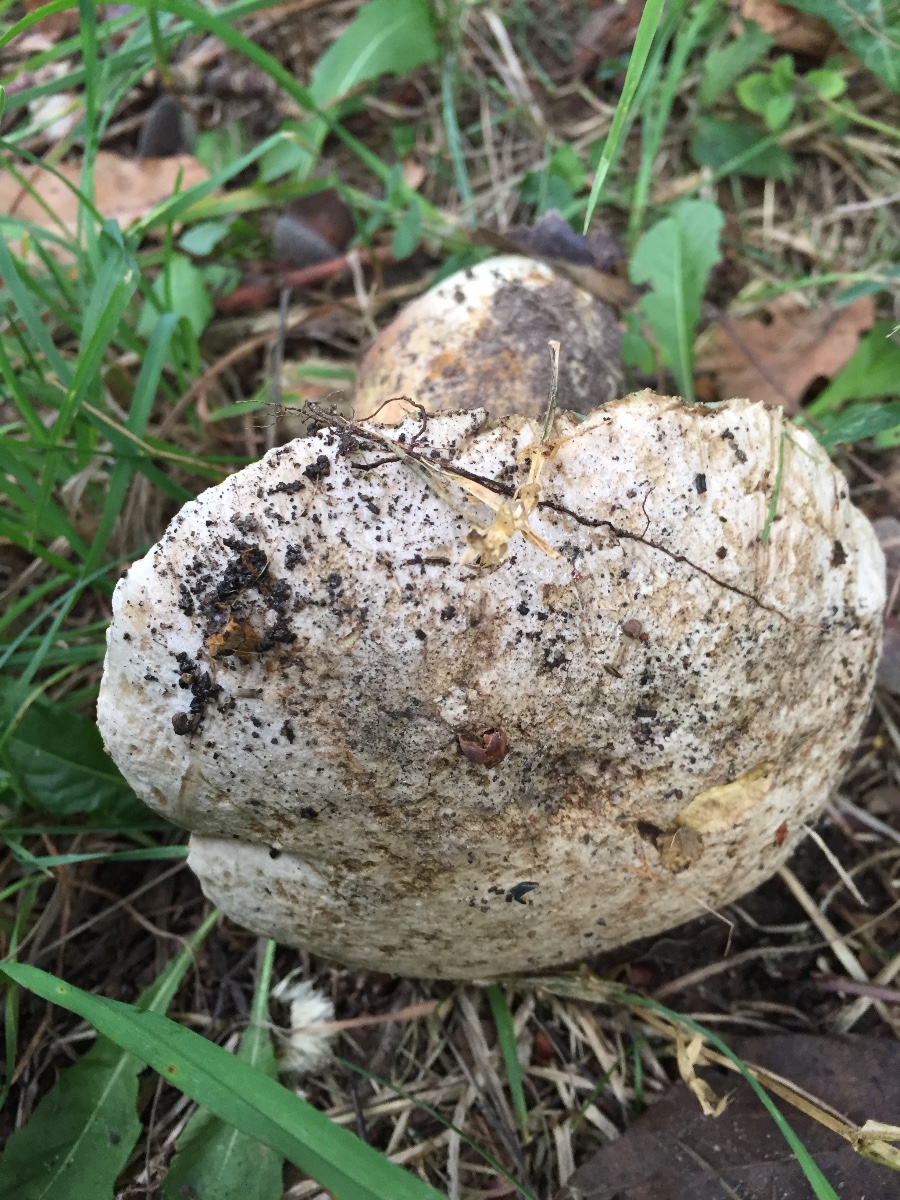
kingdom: Fungi
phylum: Basidiomycota
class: Agaricomycetes
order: Boletales
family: Boletaceae
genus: Caloboletus
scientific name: Caloboletus radicans
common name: rod-rørhat
